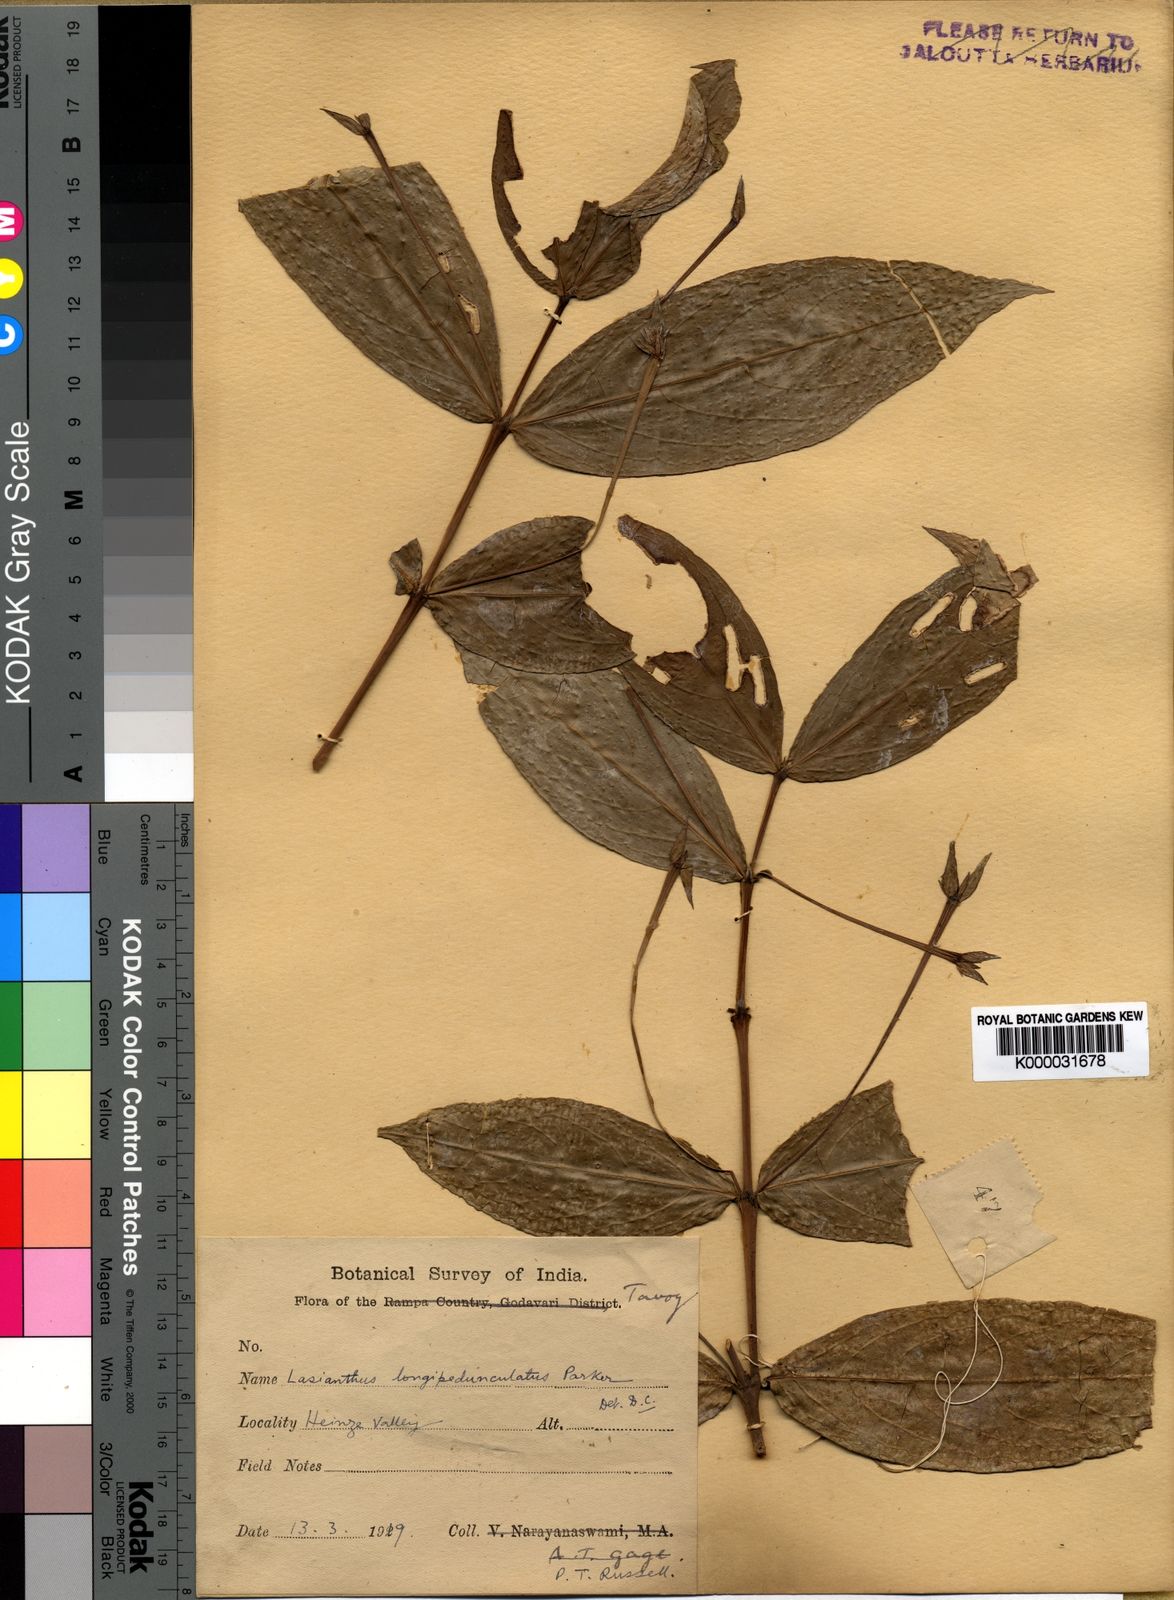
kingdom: Plantae
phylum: Tracheophyta
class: Magnoliopsida
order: Gentianales
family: Rubiaceae
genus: Lasianthus
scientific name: Lasianthus longipedunculatus
